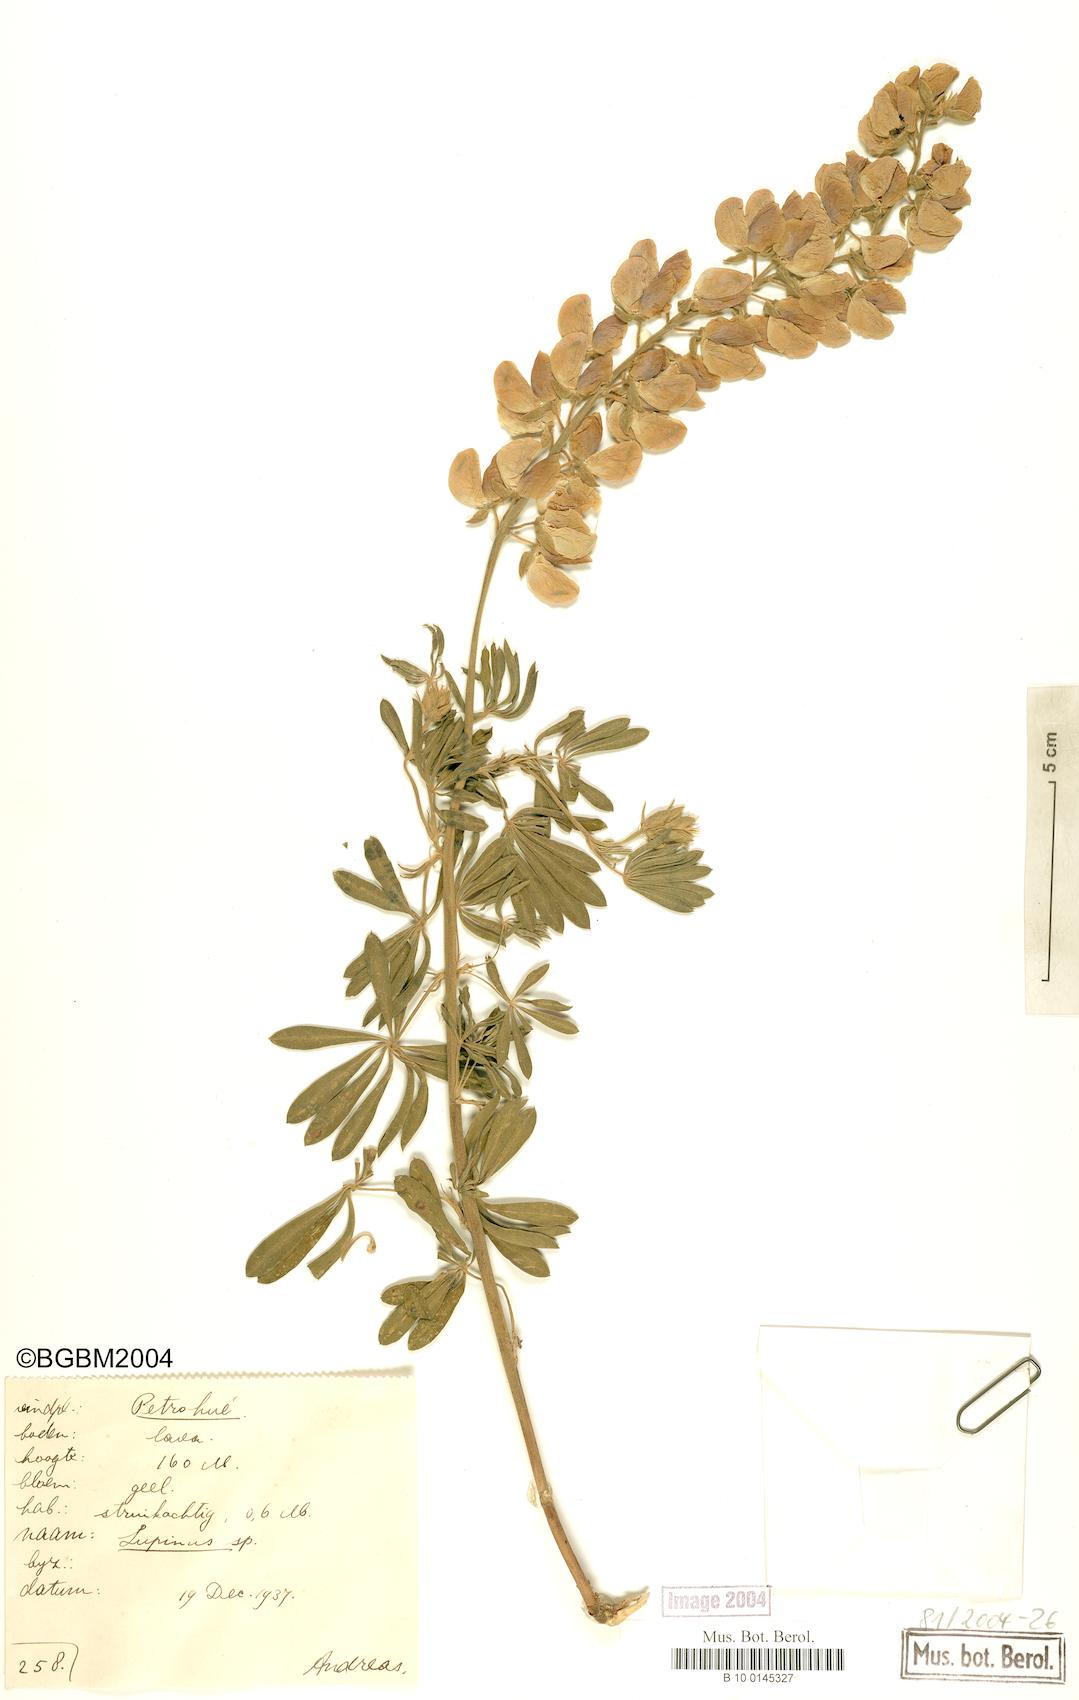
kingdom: Plantae
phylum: Tracheophyta
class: Magnoliopsida
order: Fabales
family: Fabaceae
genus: Lupinus
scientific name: Lupinus
